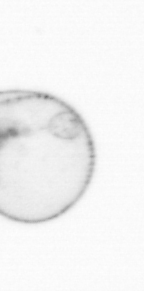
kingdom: Chromista
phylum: Myzozoa
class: Dinophyceae
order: Noctilucales
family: Noctilucaceae
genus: Noctiluca
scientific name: Noctiluca scintillans
